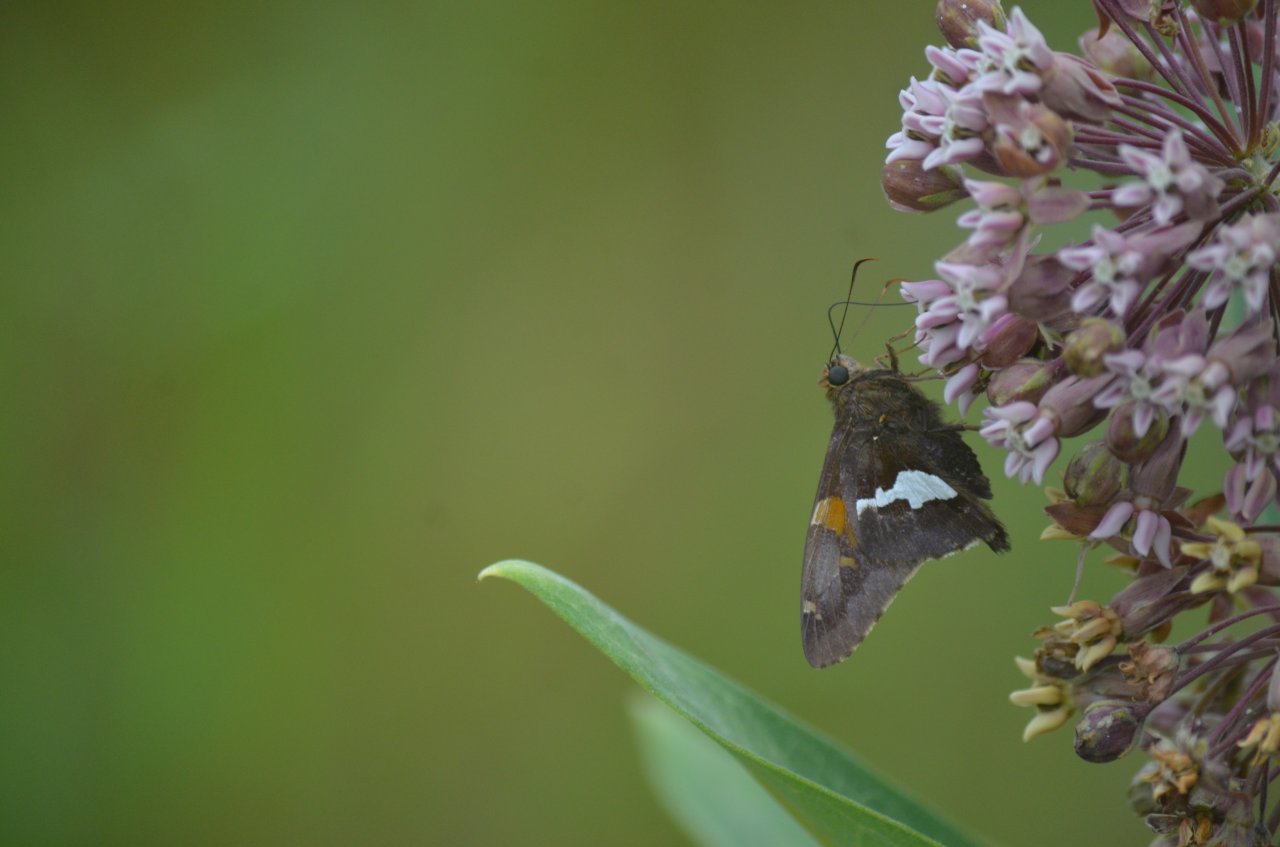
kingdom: Animalia
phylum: Arthropoda
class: Insecta
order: Lepidoptera
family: Hesperiidae
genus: Epargyreus
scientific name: Epargyreus clarus
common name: Silver-spotted Skipper
